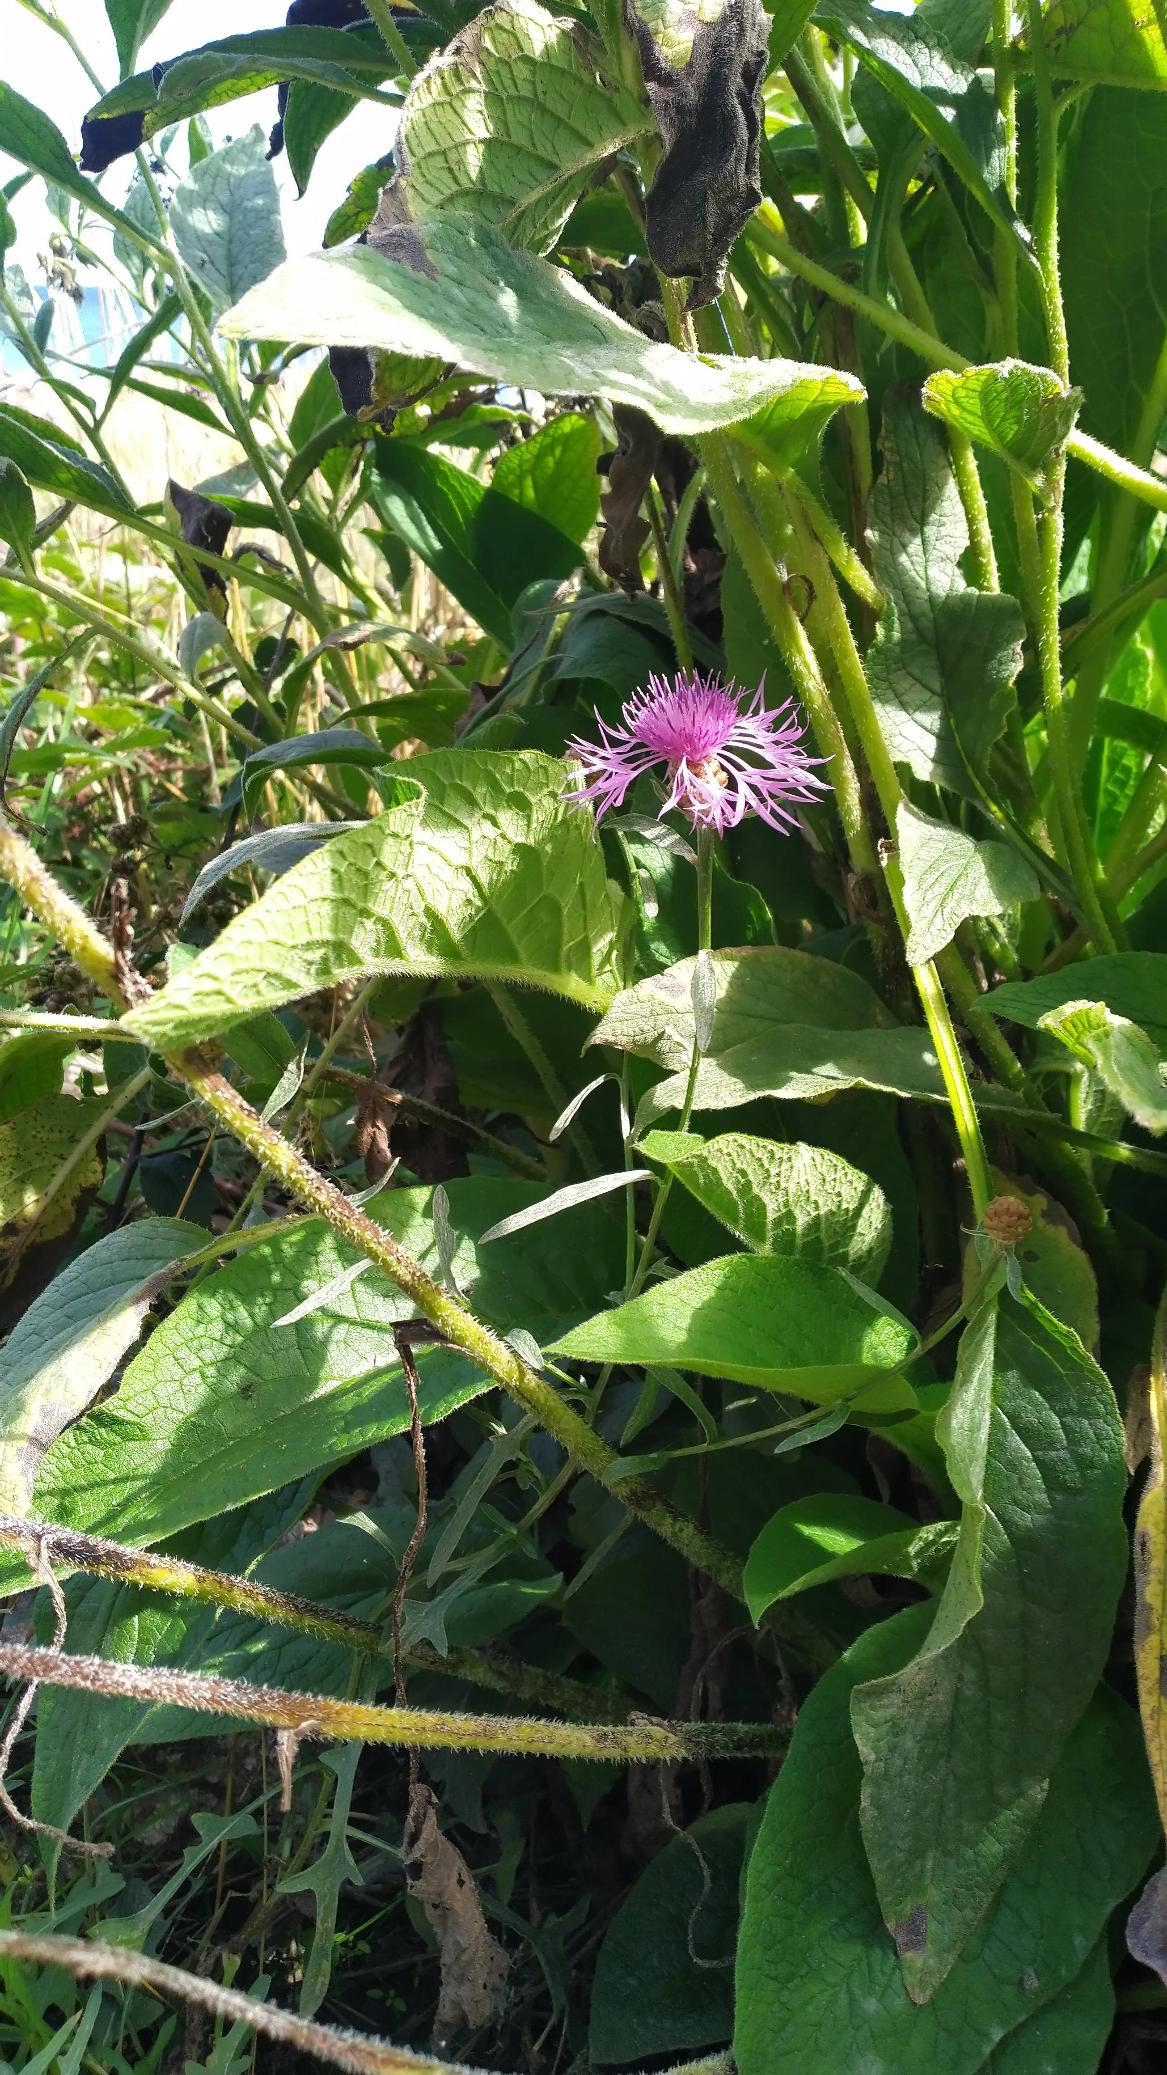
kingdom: Plantae
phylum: Tracheophyta
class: Magnoliopsida
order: Boraginales
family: Boraginaceae
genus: Symphytum
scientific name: Symphytum uplandicum
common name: Foder-kulsukker
